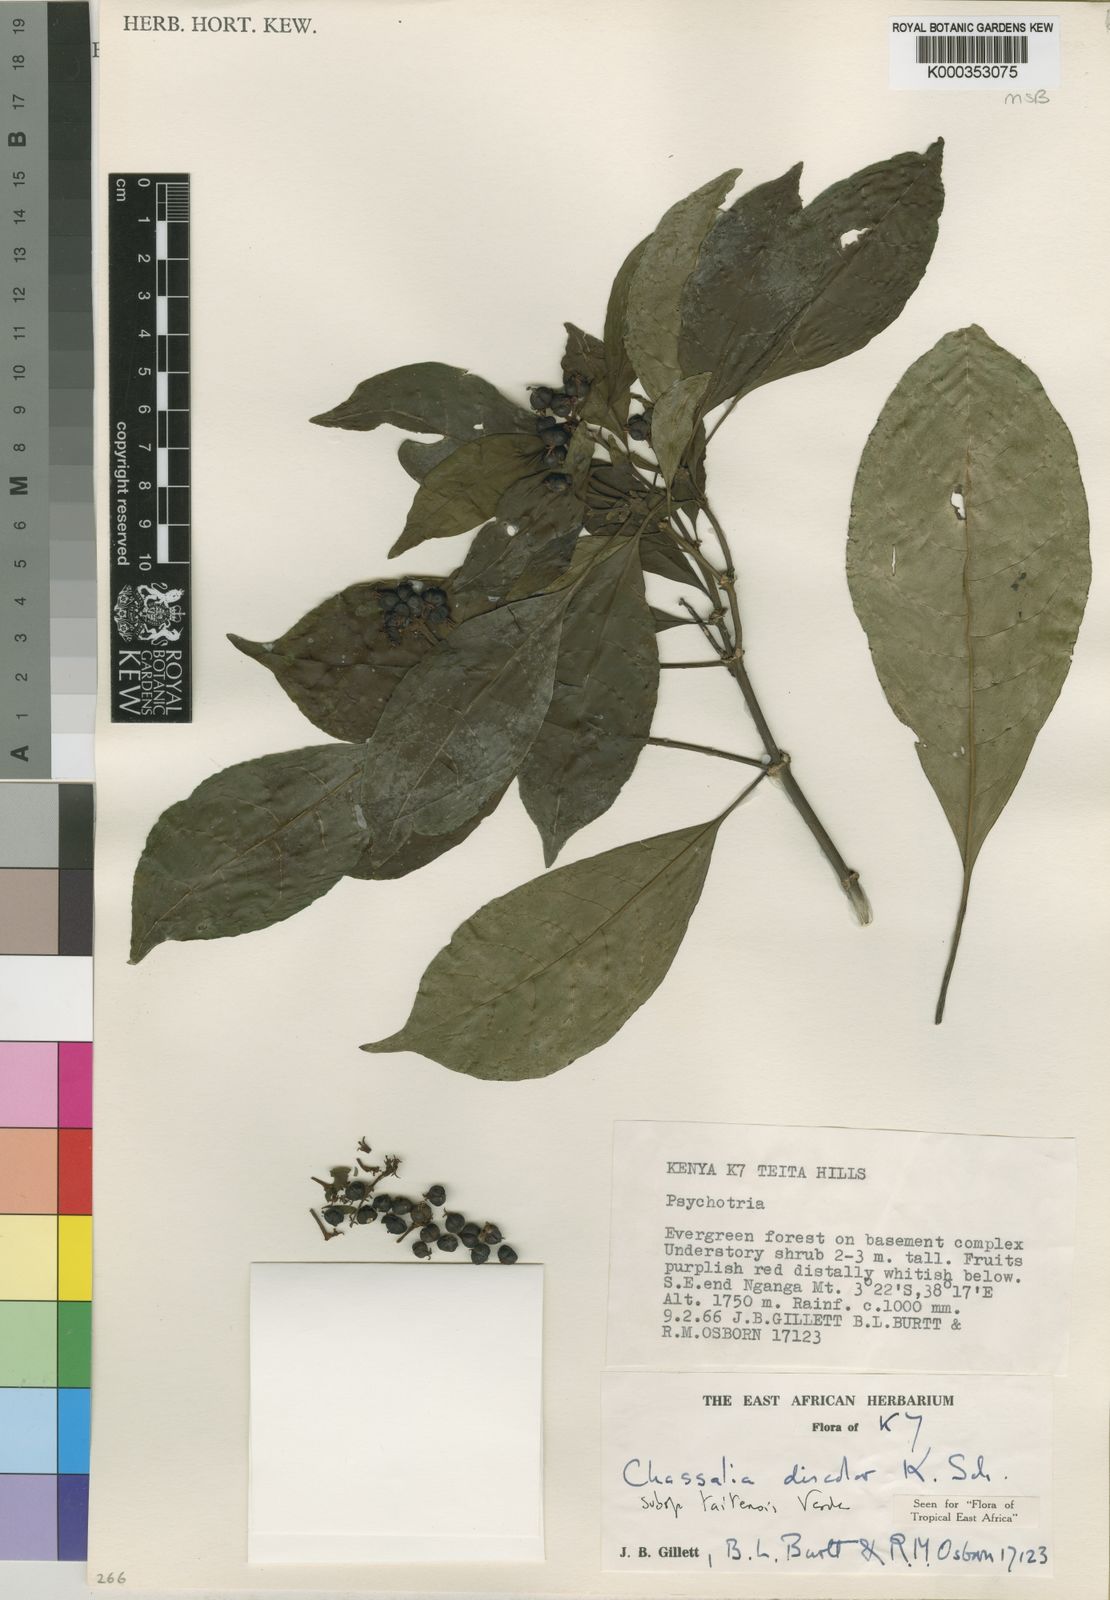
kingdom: Plantae
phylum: Tracheophyta
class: Magnoliopsida
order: Gentianales
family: Rubiaceae
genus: Chassalia
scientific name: Chassalia discolor
